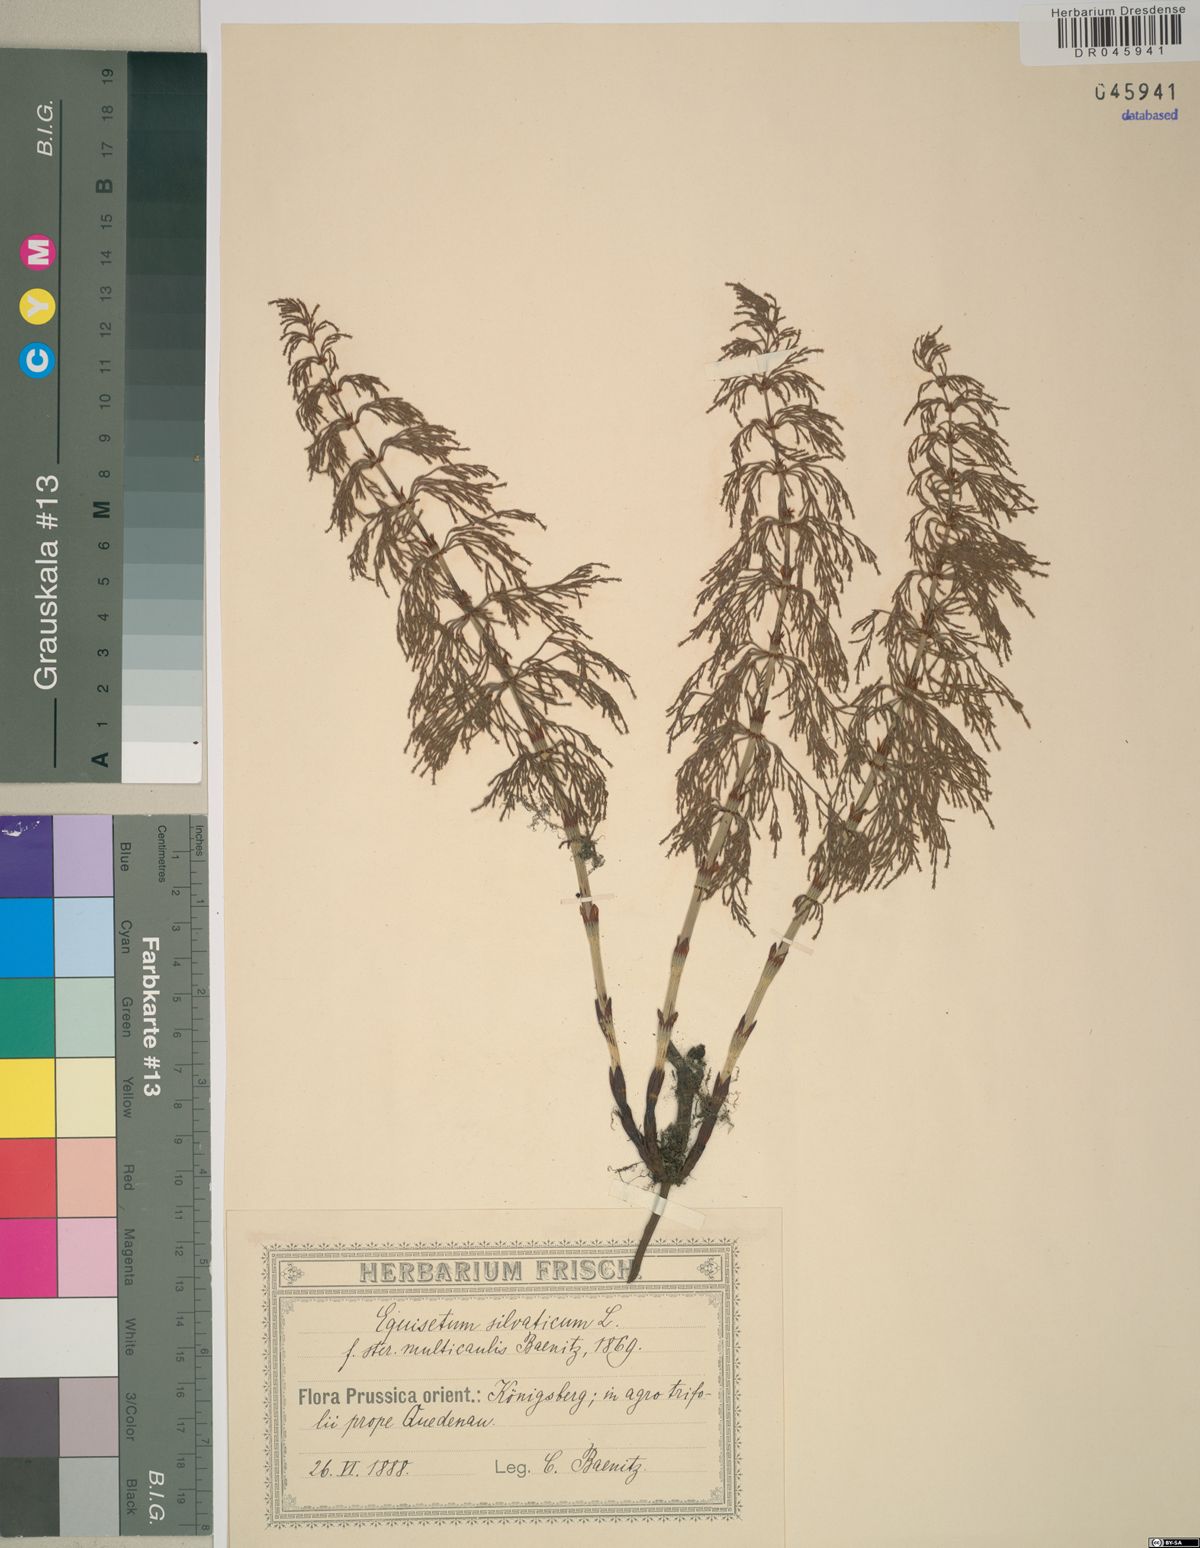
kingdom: Plantae
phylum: Tracheophyta
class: Polypodiopsida
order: Equisetales
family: Equisetaceae
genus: Equisetum
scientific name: Equisetum sylvaticum
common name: Wood horsetail
